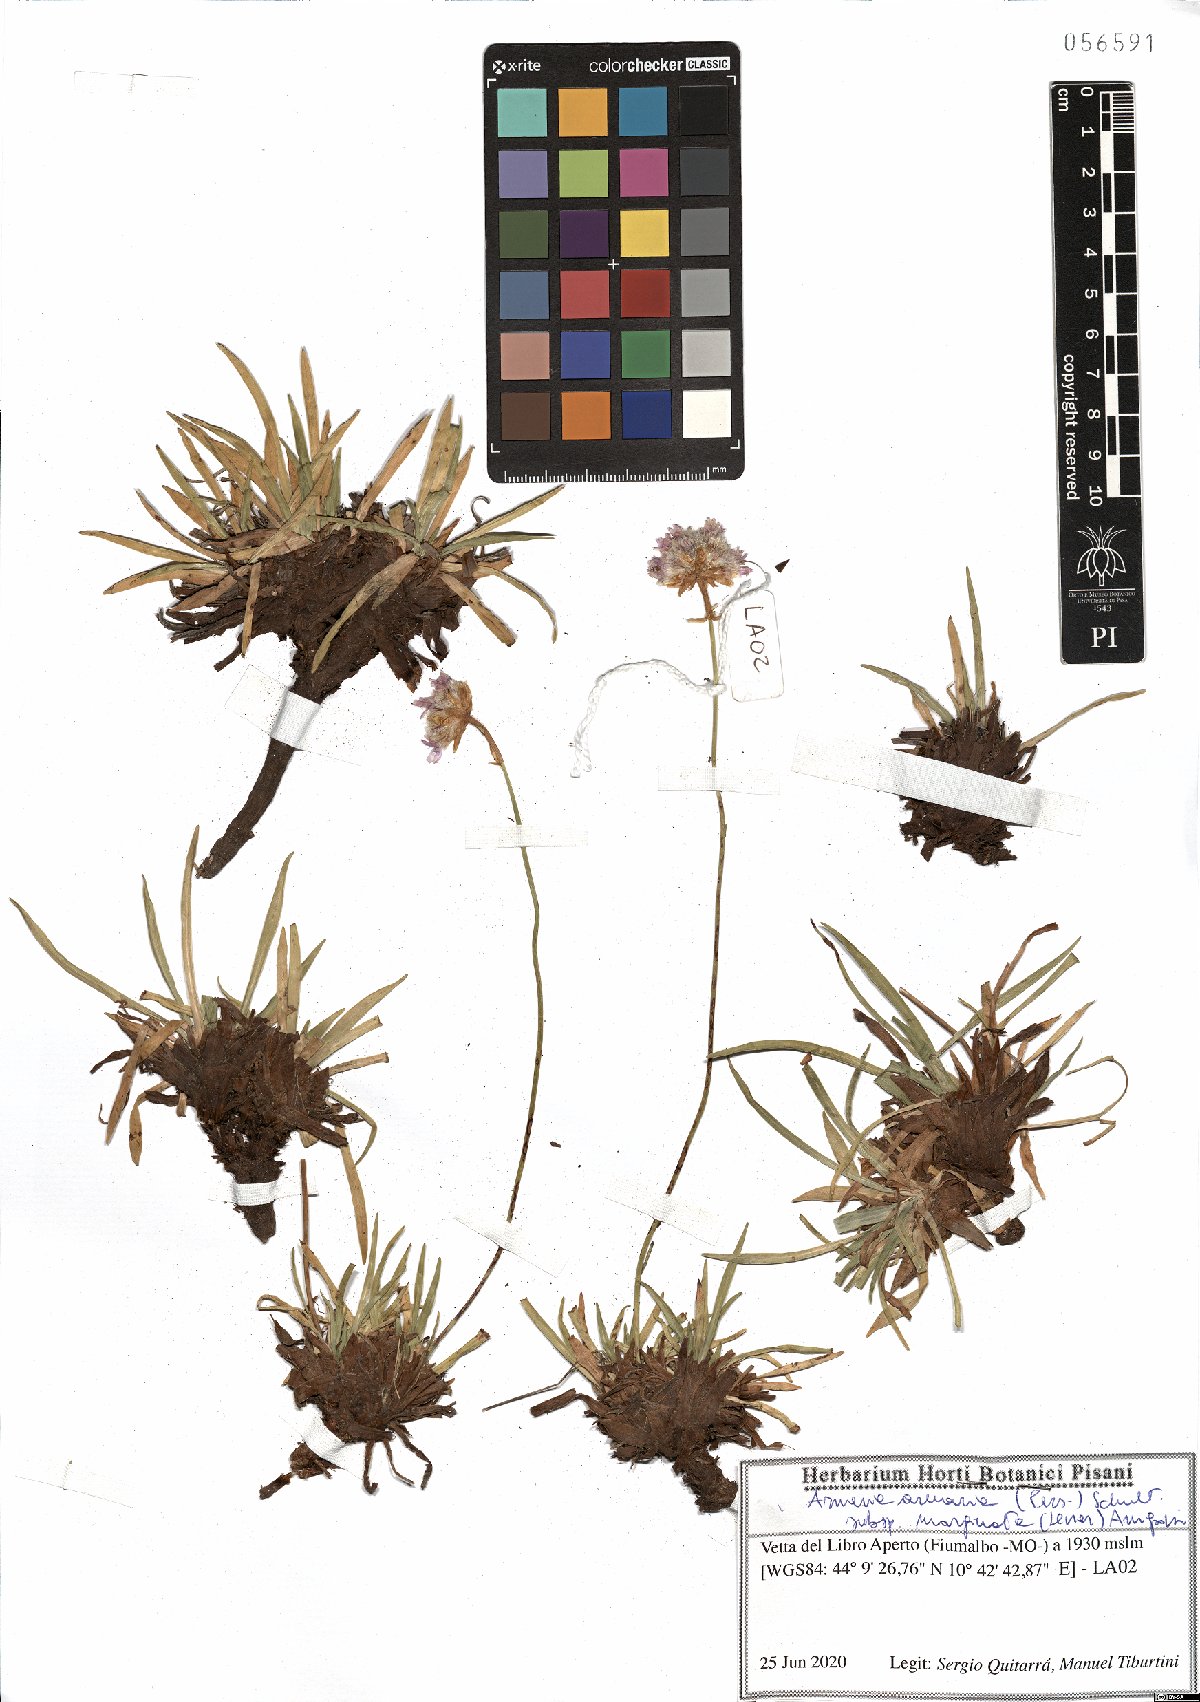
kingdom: Plantae
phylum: Tracheophyta
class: Magnoliopsida
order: Caryophyllales
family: Plumbaginaceae
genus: Armeria
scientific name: Armeria arenaria
